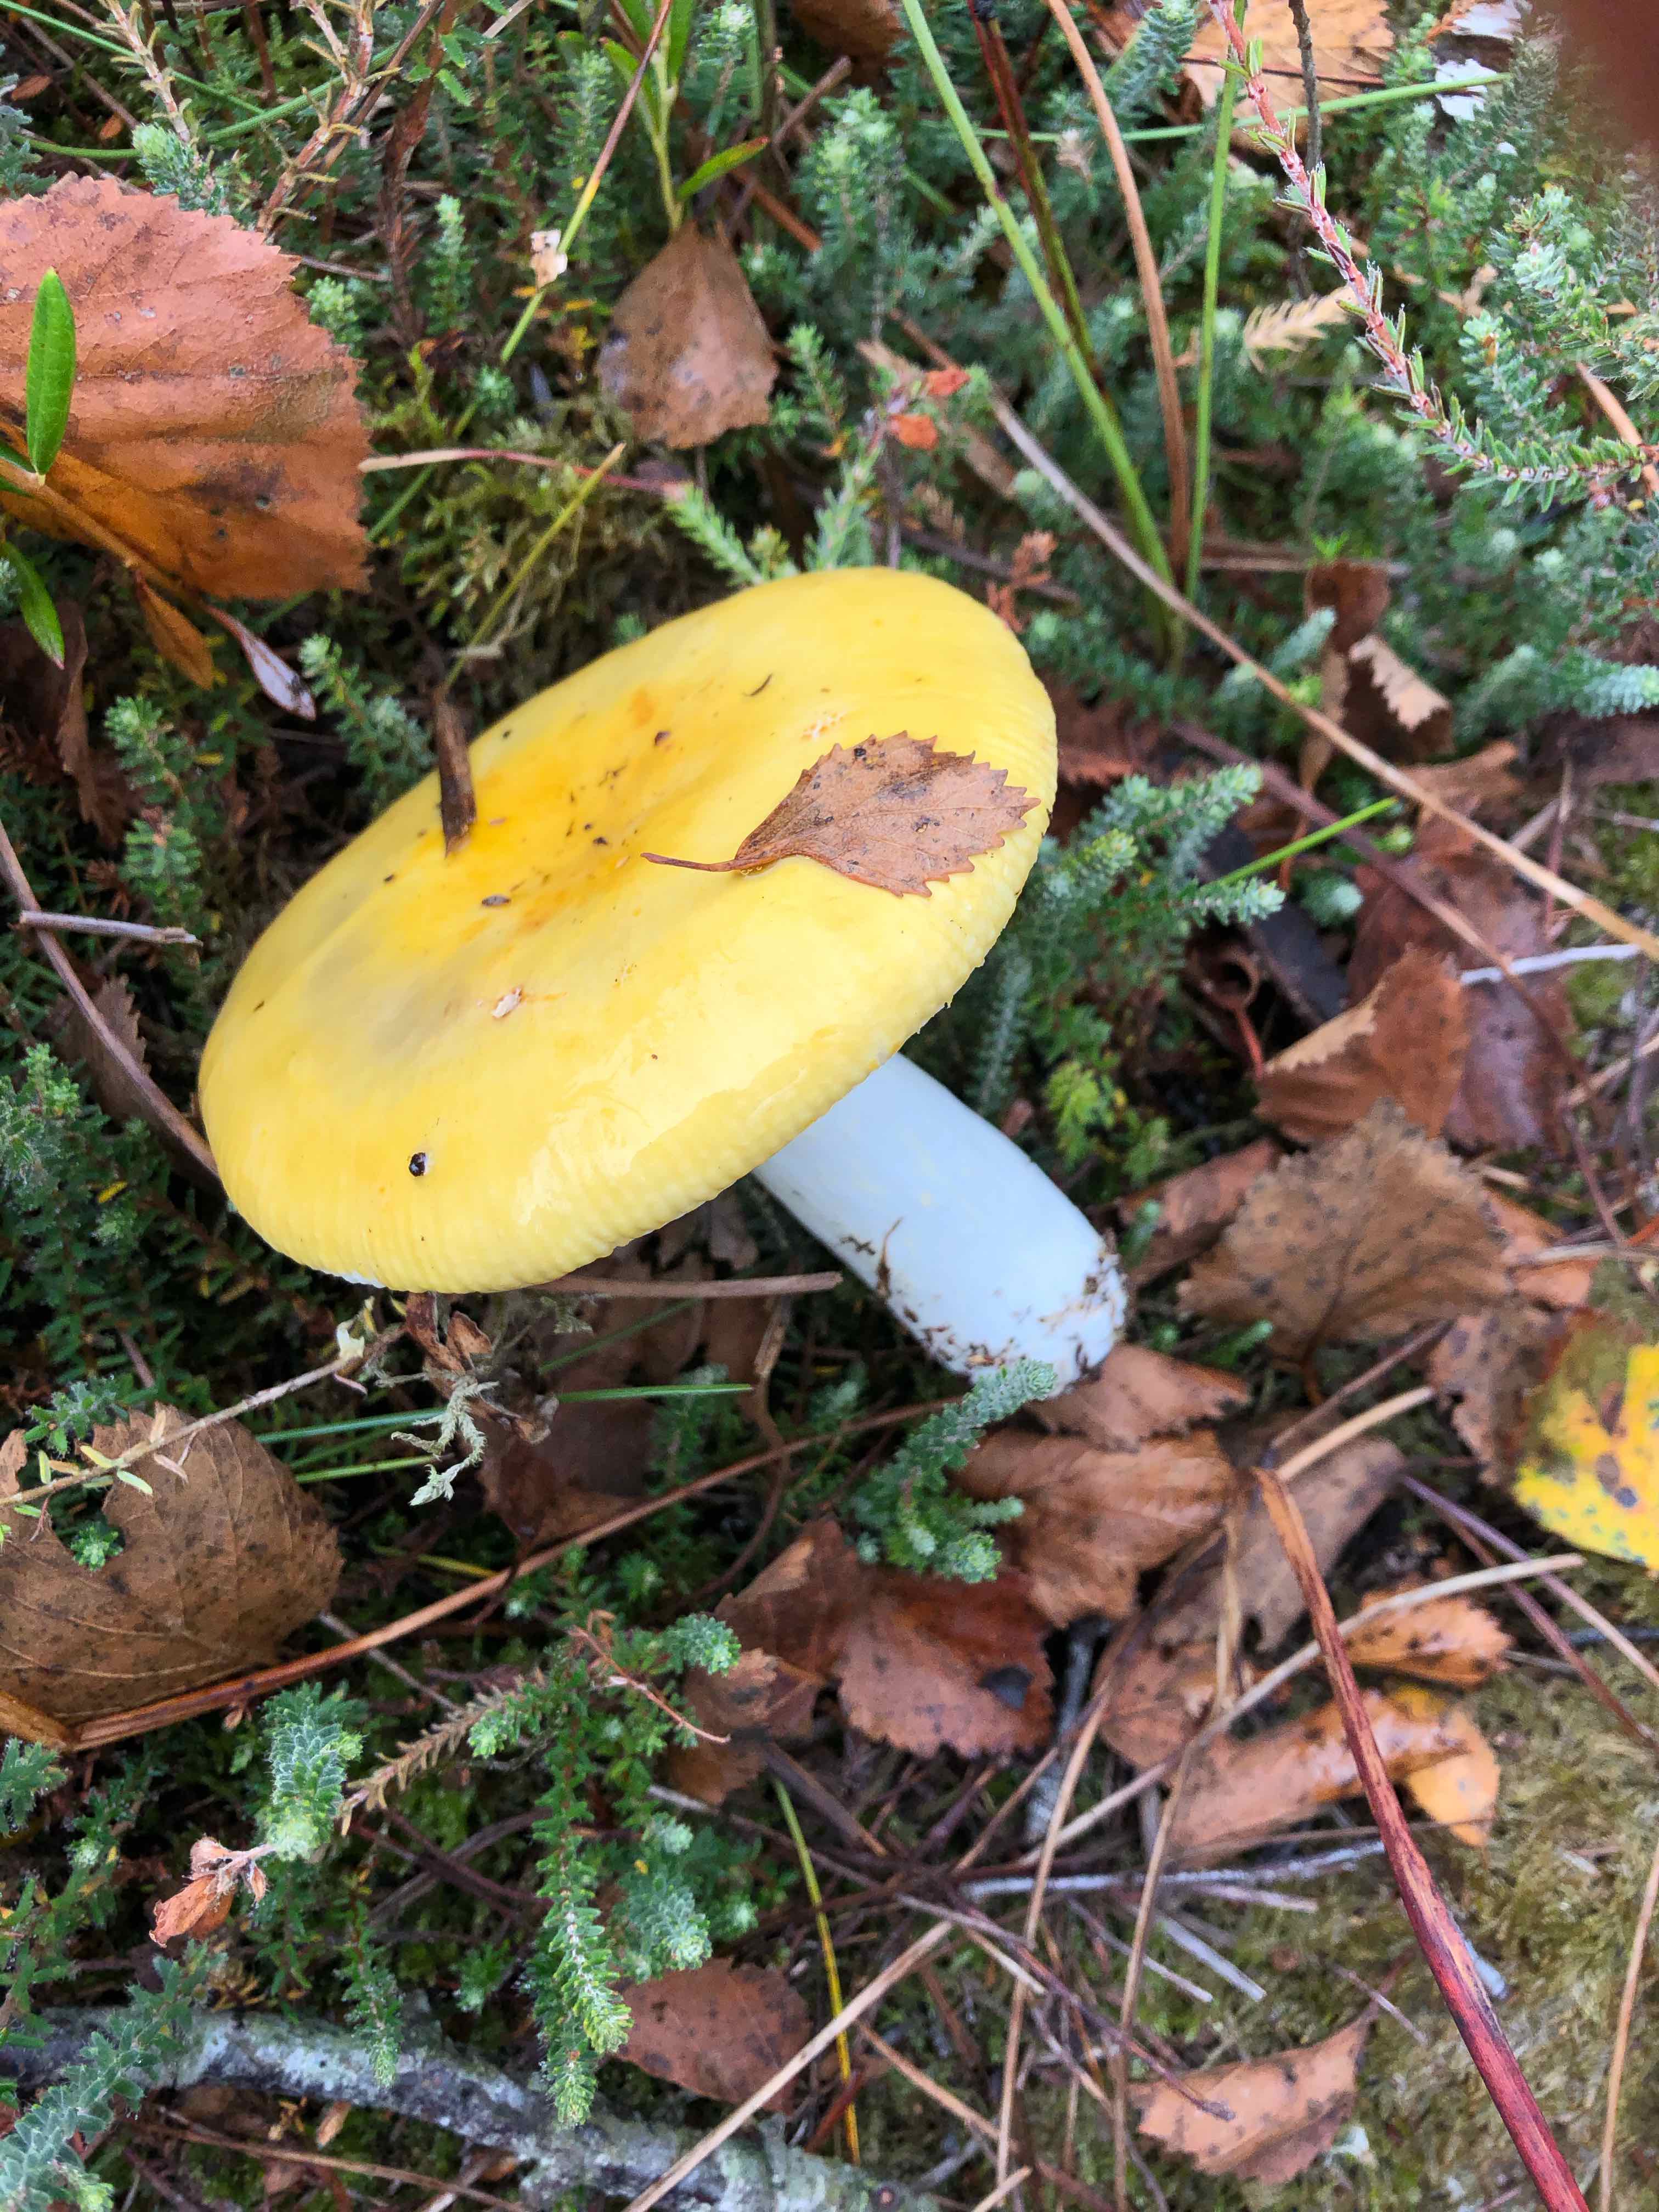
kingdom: Fungi
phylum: Basidiomycota
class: Agaricomycetes
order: Russulales
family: Russulaceae
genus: Russula
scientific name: Russula claroflava
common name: birke-skørhat
